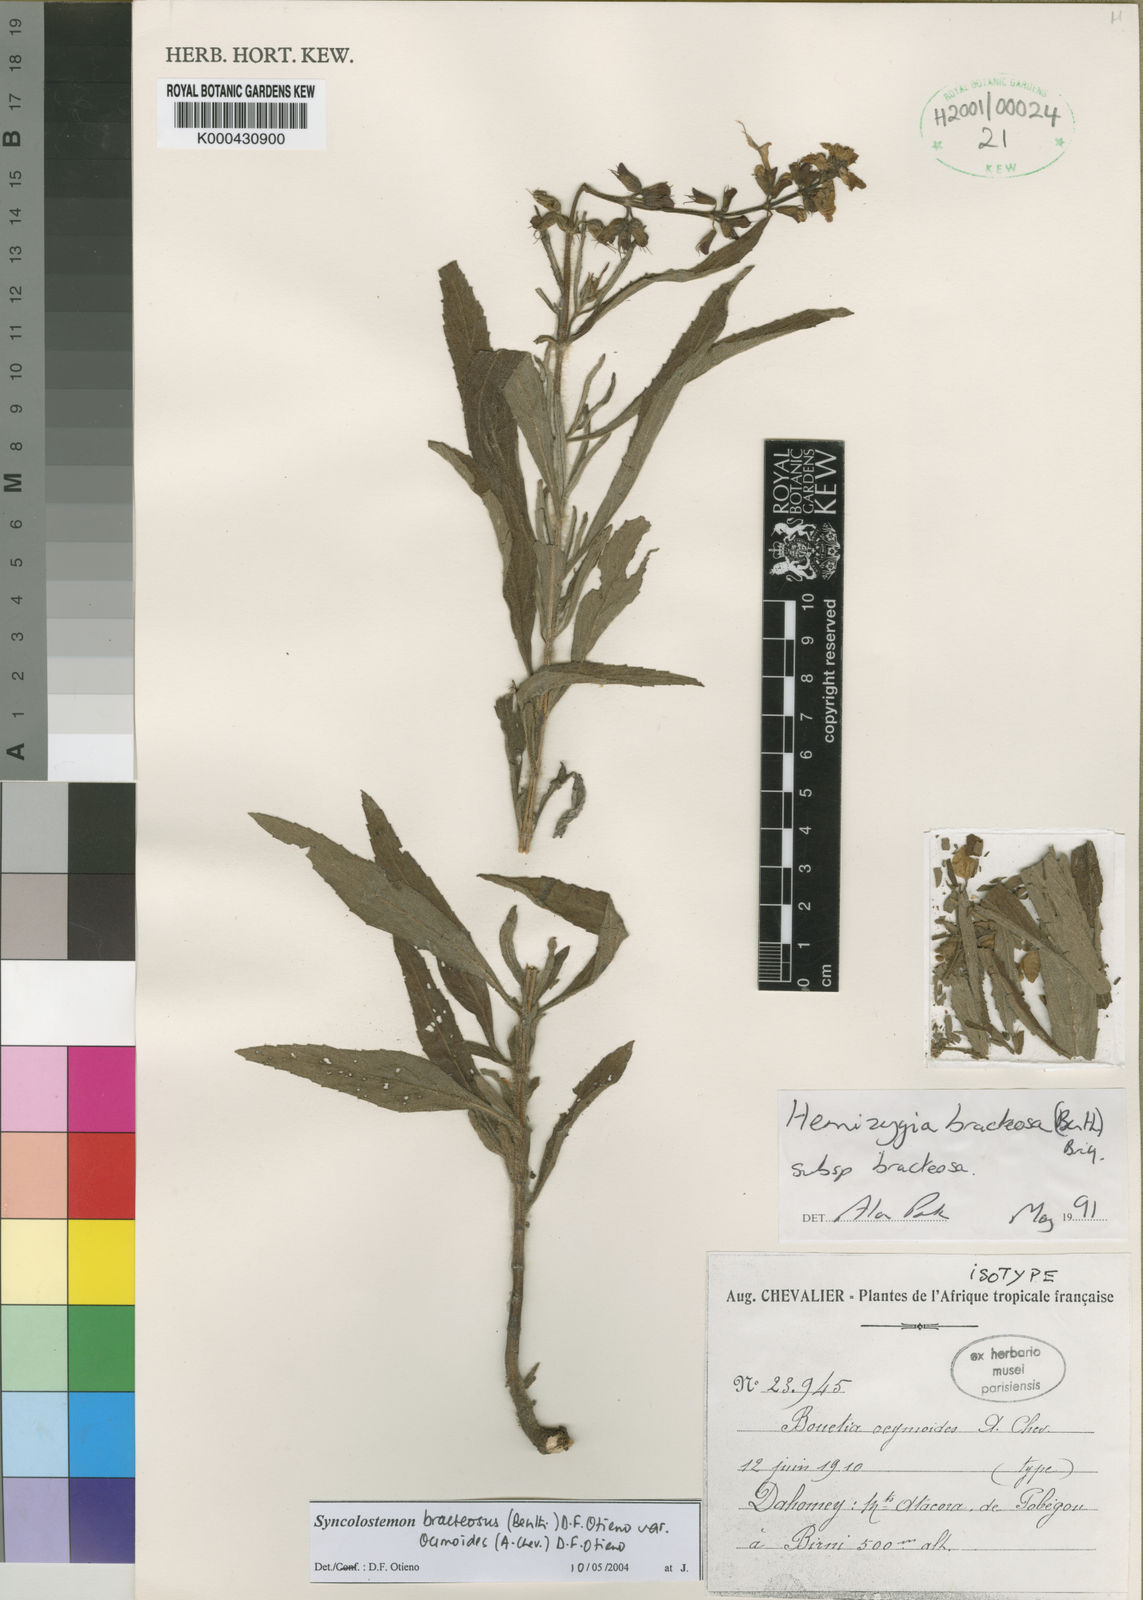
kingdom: Plantae
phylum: Tracheophyta
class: Magnoliopsida
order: Lamiales
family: Lamiaceae
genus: Syncolostemon
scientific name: Syncolostemon bracteosus
